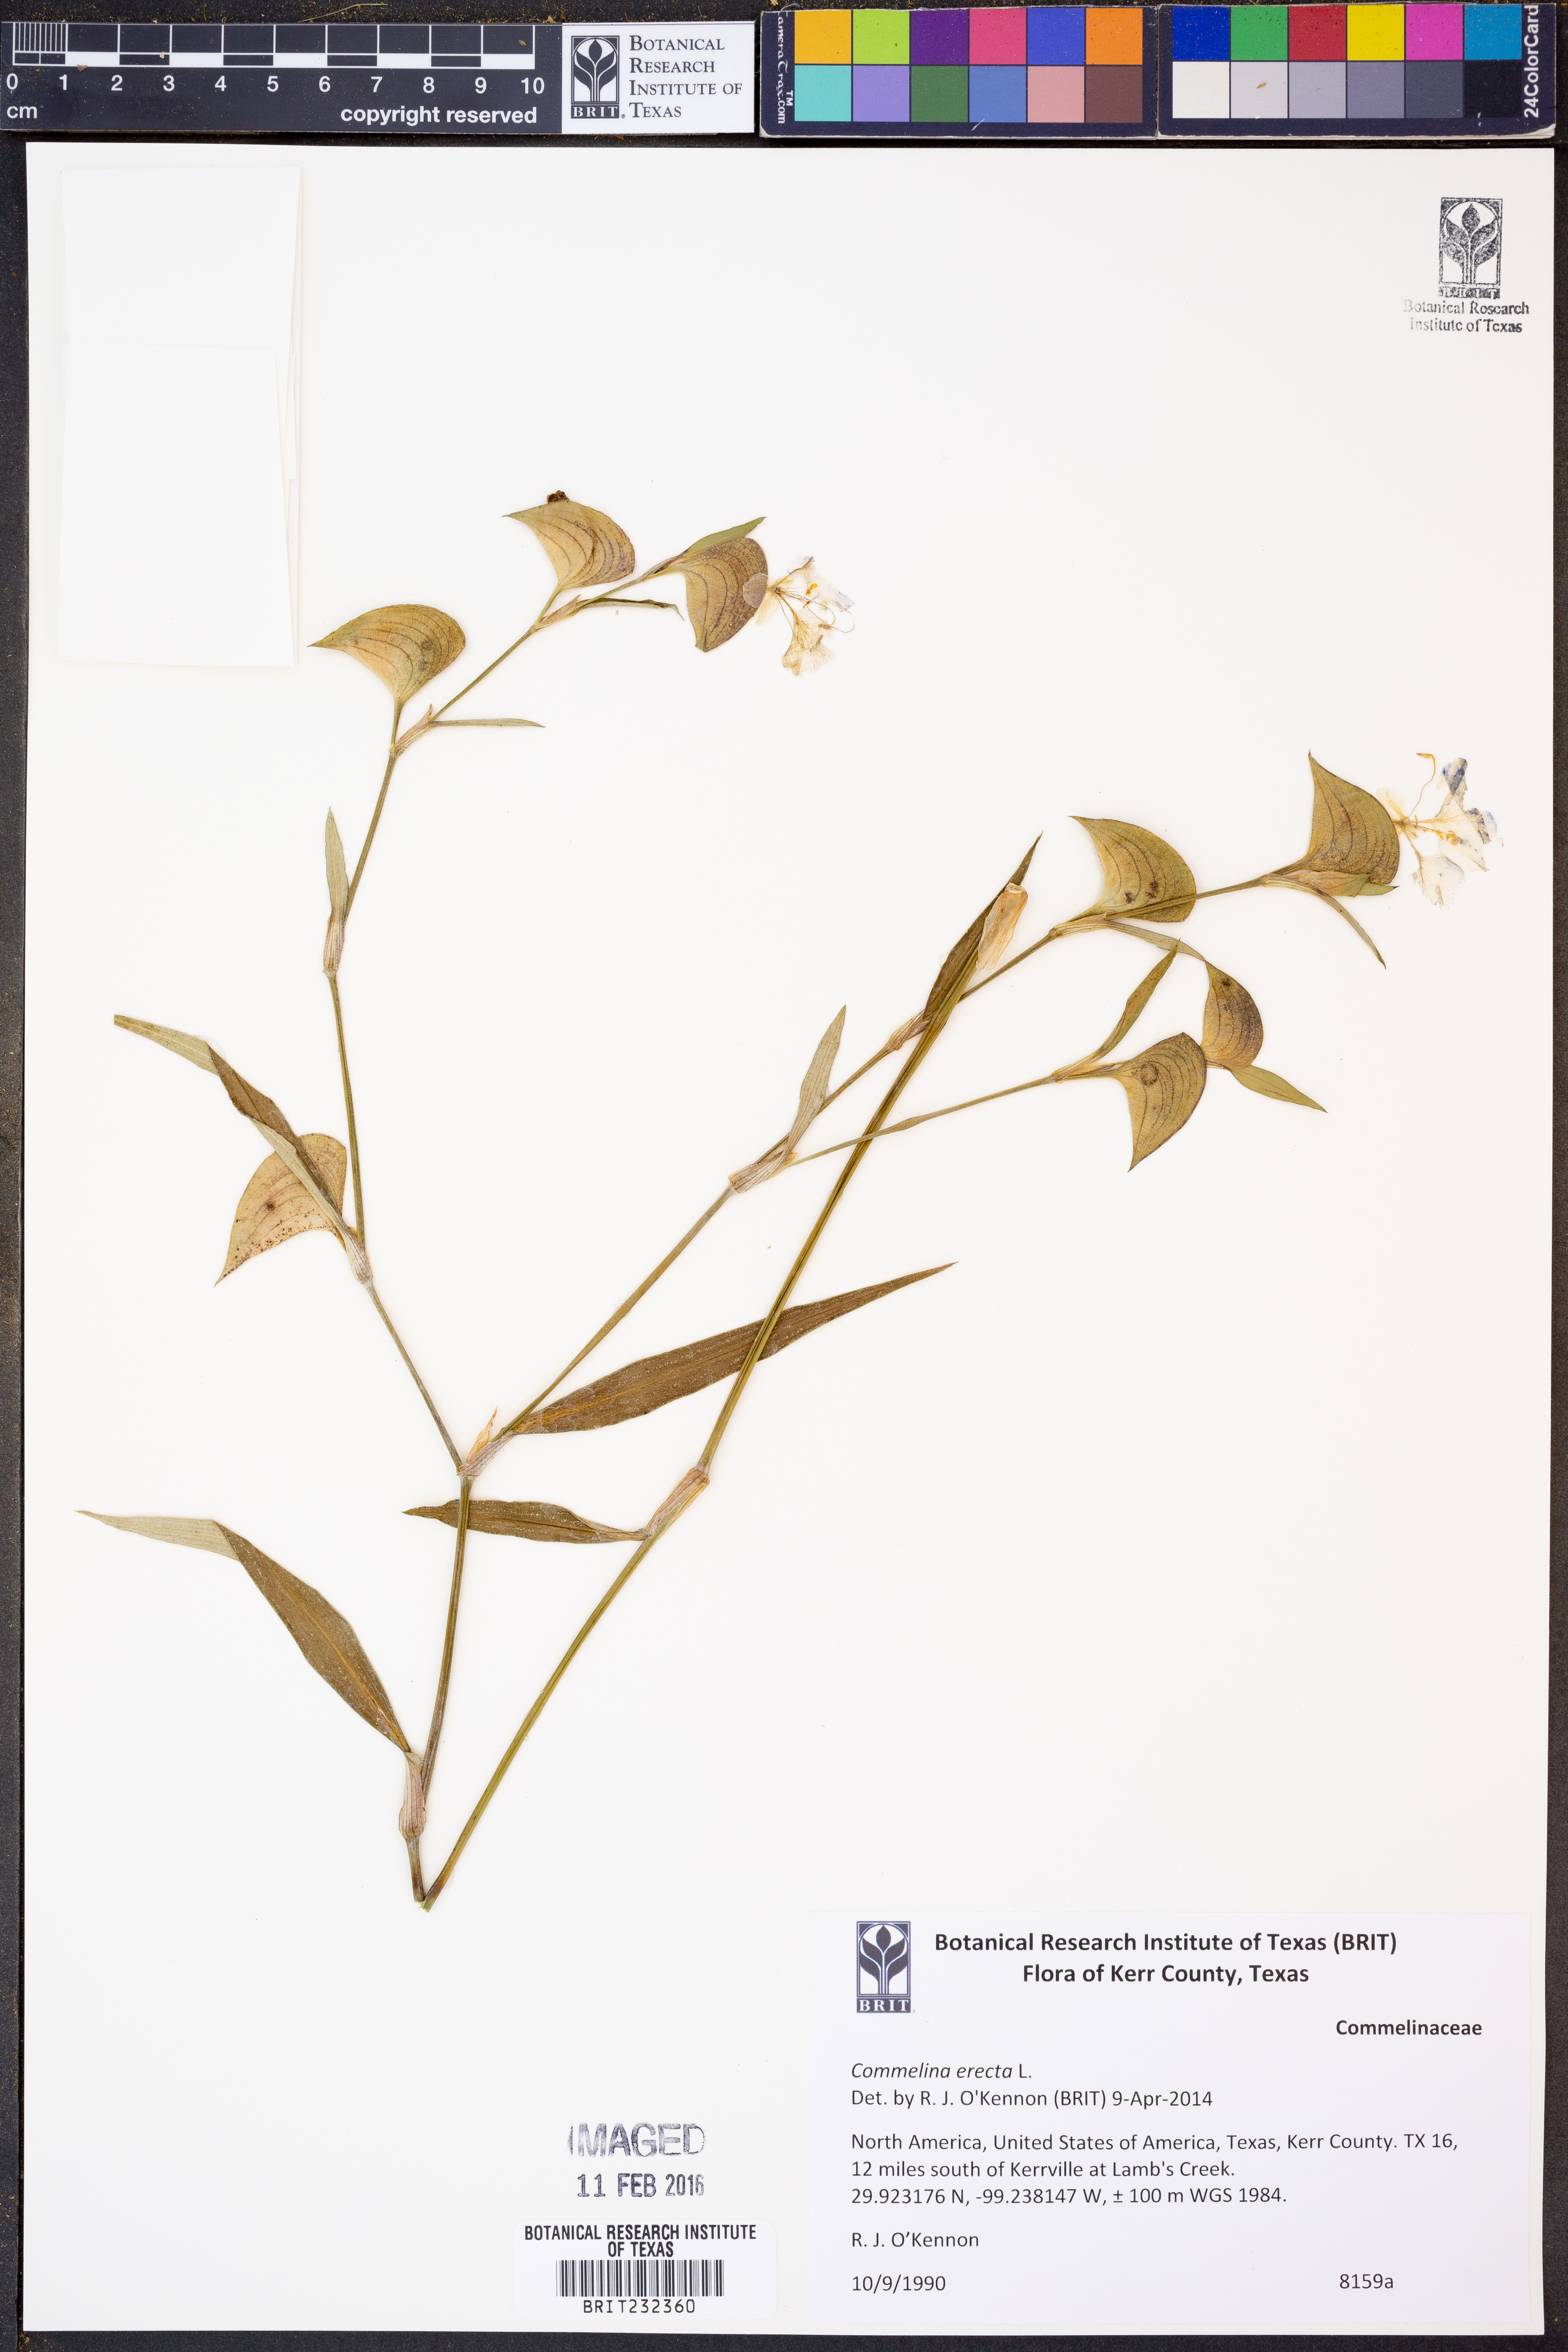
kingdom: Plantae
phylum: Tracheophyta
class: Liliopsida
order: Commelinales
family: Commelinaceae
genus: Commelina
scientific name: Commelina erecta
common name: Blousel blommetjie
